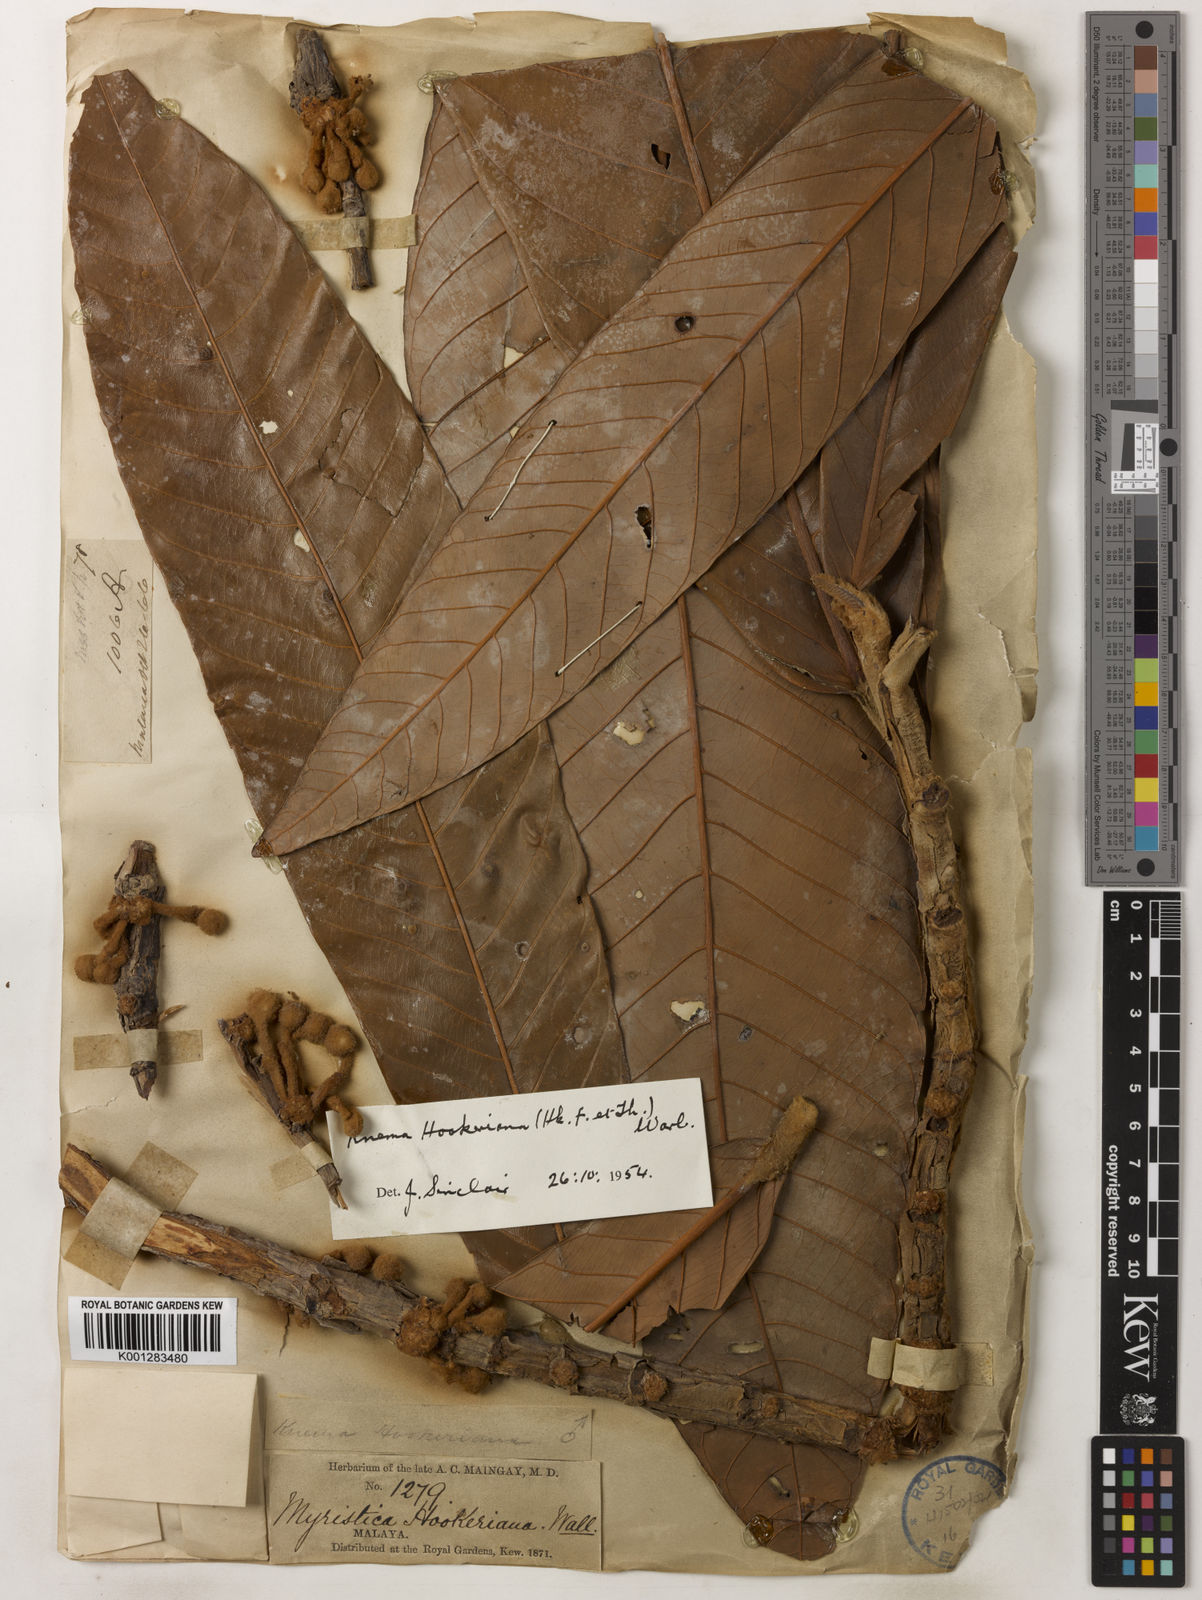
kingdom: Plantae
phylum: Tracheophyta
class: Magnoliopsida
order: Magnoliales
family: Myristicaceae
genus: Knema
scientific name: Knema hookeriana
